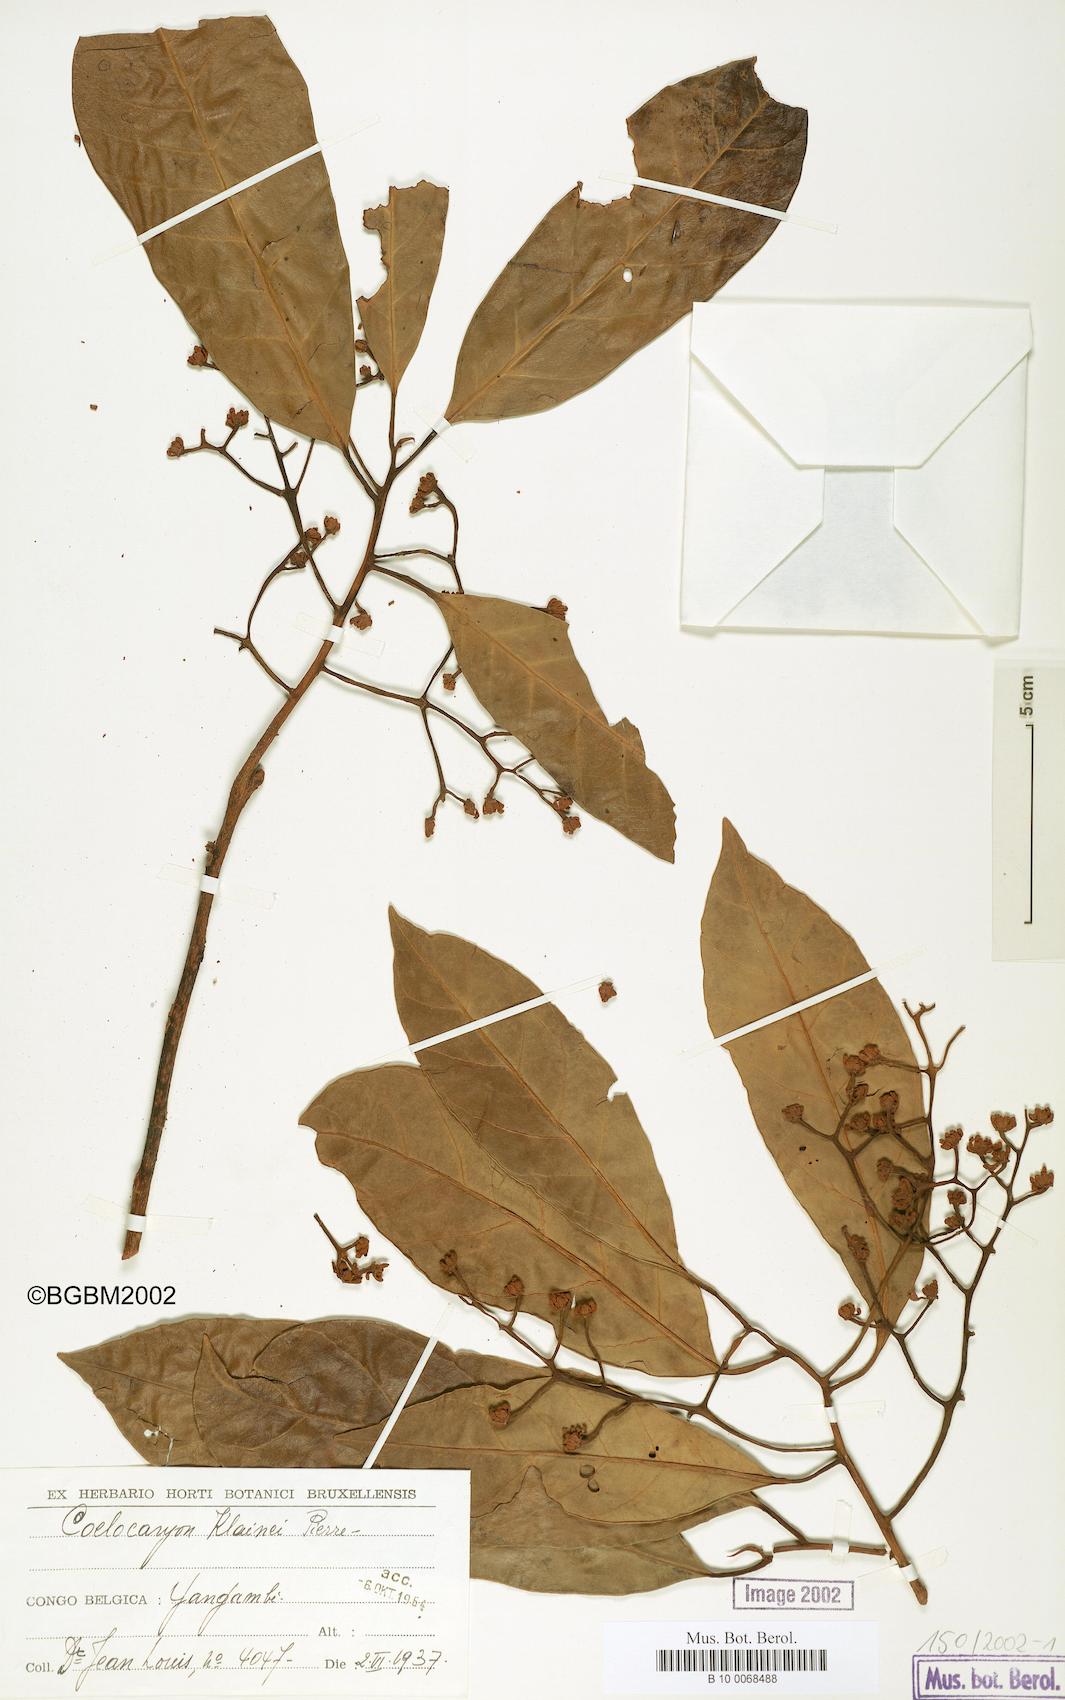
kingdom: Plantae
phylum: Tracheophyta
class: Magnoliopsida
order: Magnoliales
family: Myristicaceae
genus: Coelocaryon
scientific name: Coelocaryon preussii
